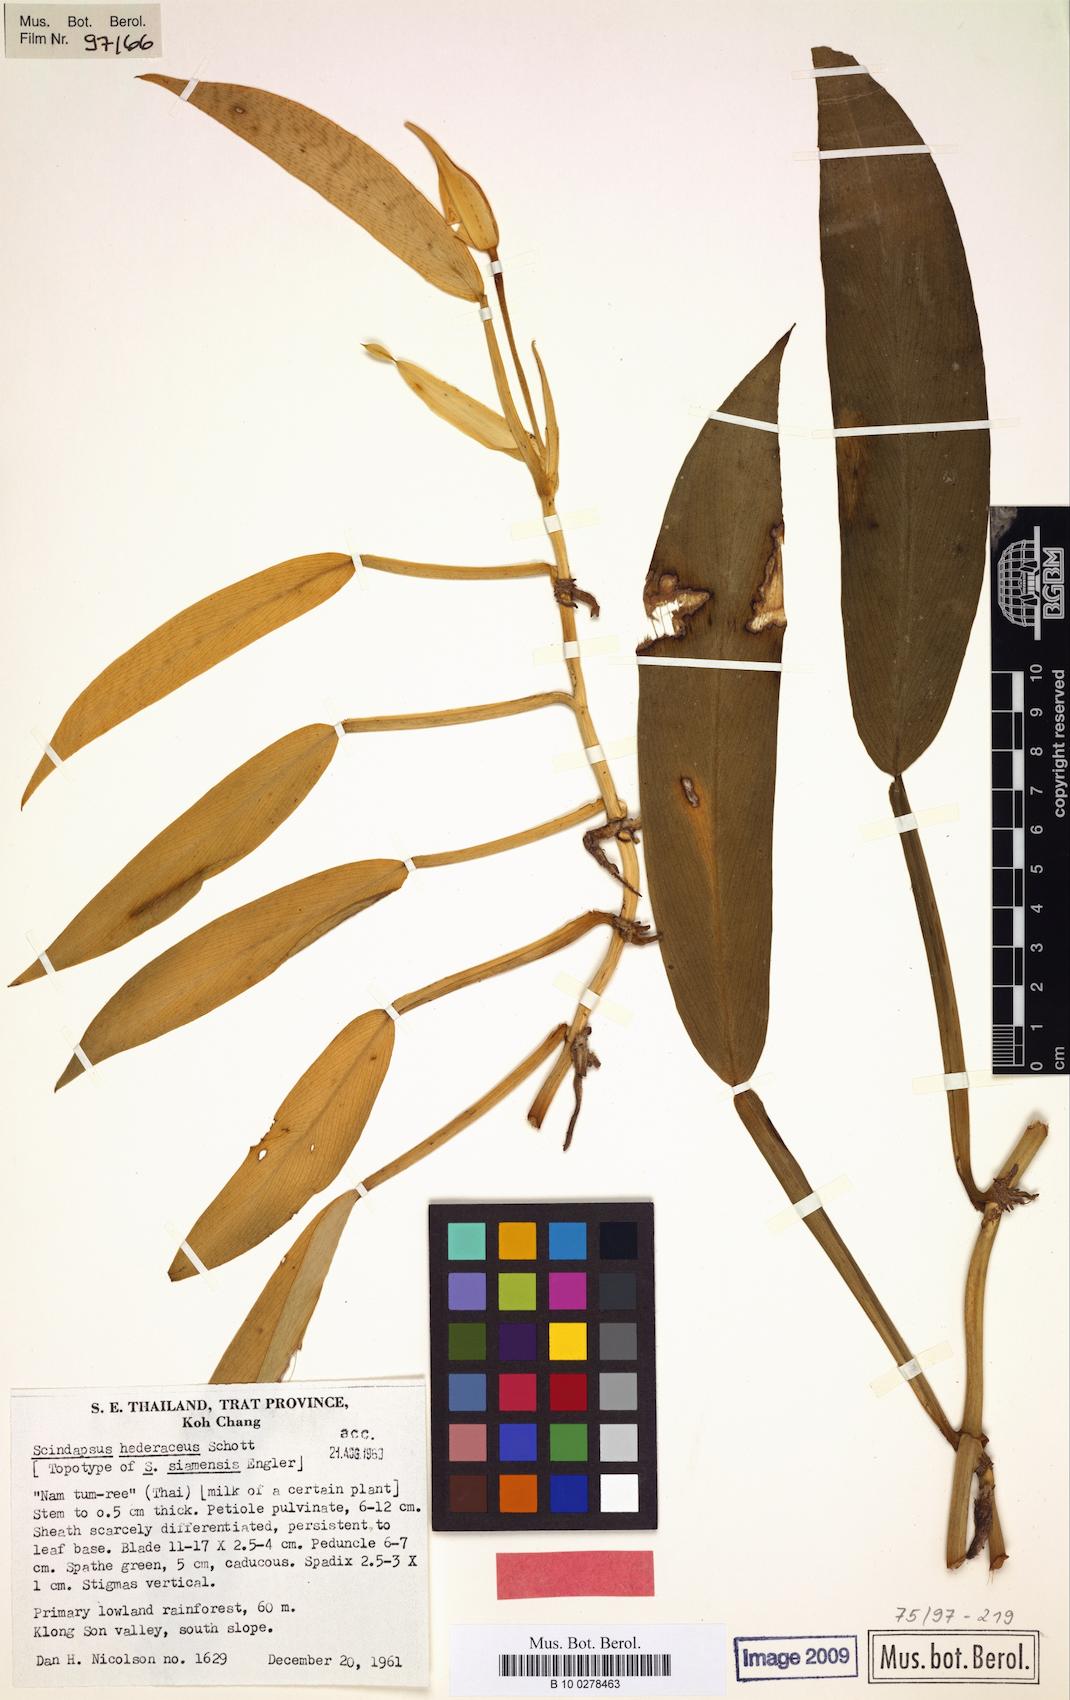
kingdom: Plantae
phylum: Tracheophyta
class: Liliopsida
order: Alismatales
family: Araceae
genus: Scindapsus
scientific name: Scindapsus hederaceus
